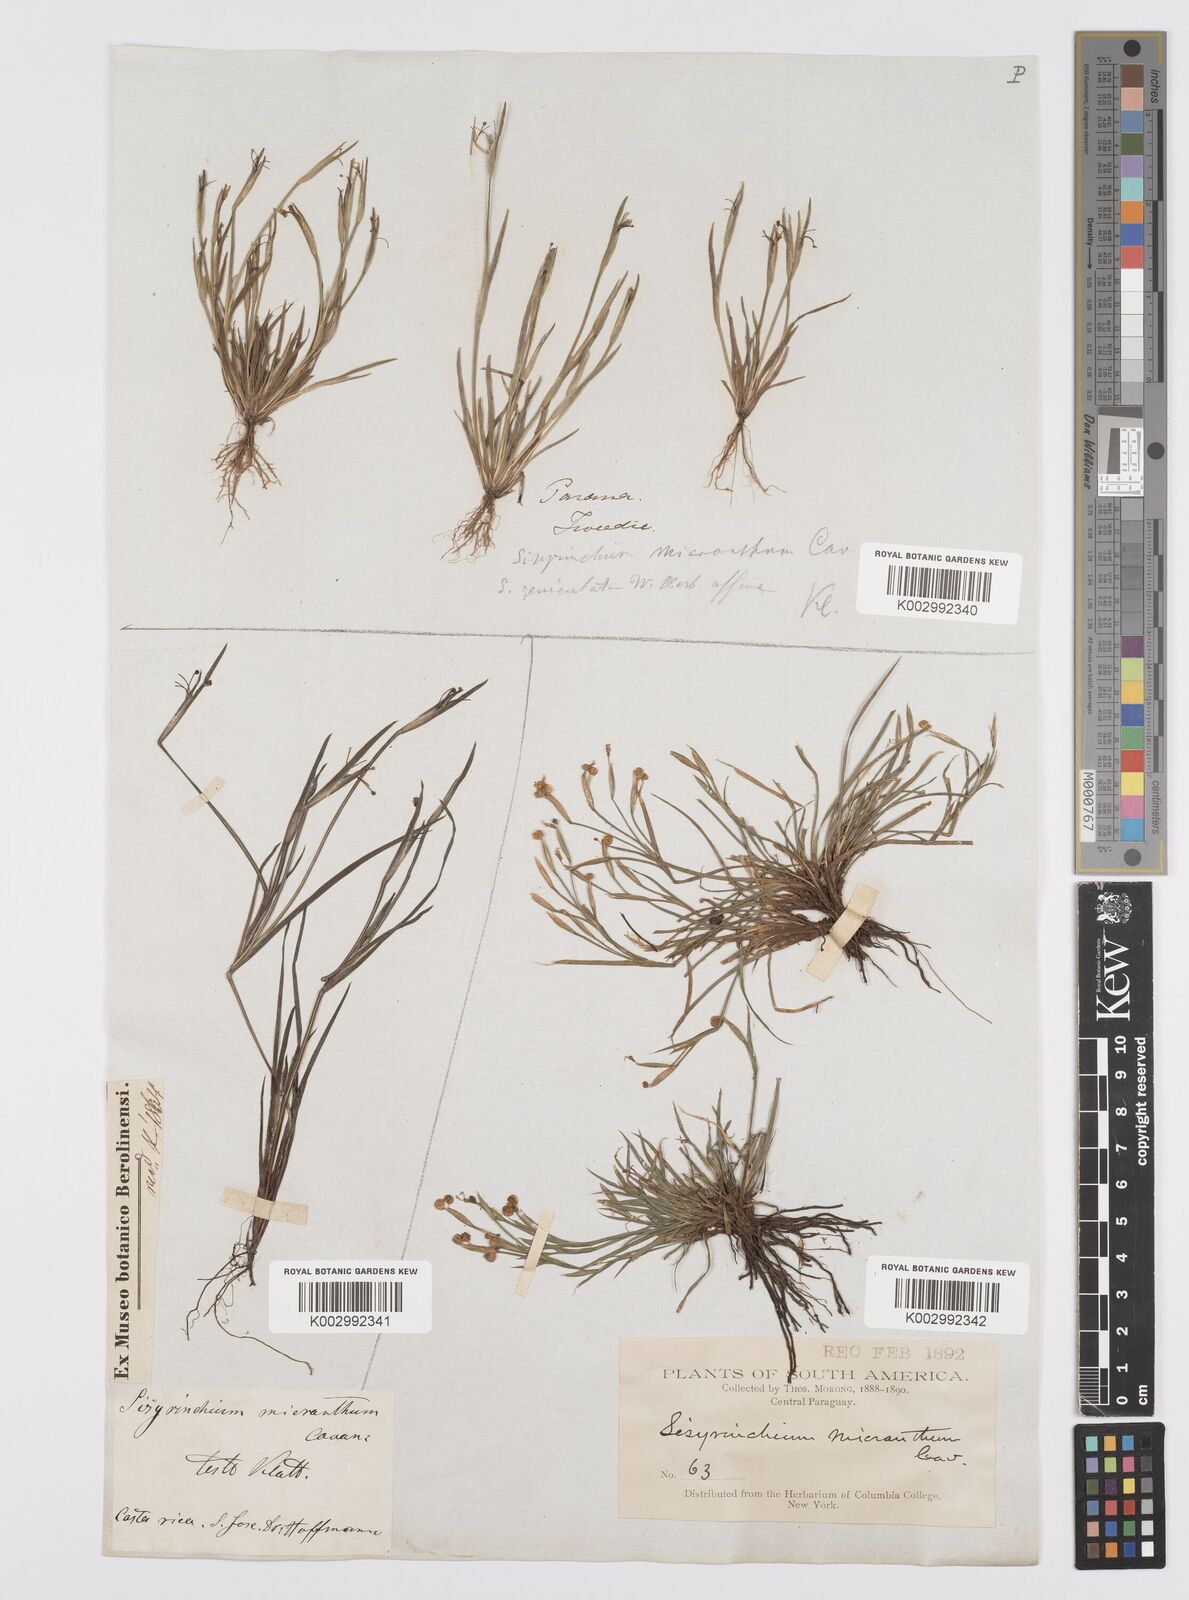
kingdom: Plantae
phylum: Tracheophyta
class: Liliopsida
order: Asparagales
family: Iridaceae
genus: Sisyrinchium
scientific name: Sisyrinchium micranthum
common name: Bermuda pigroot
